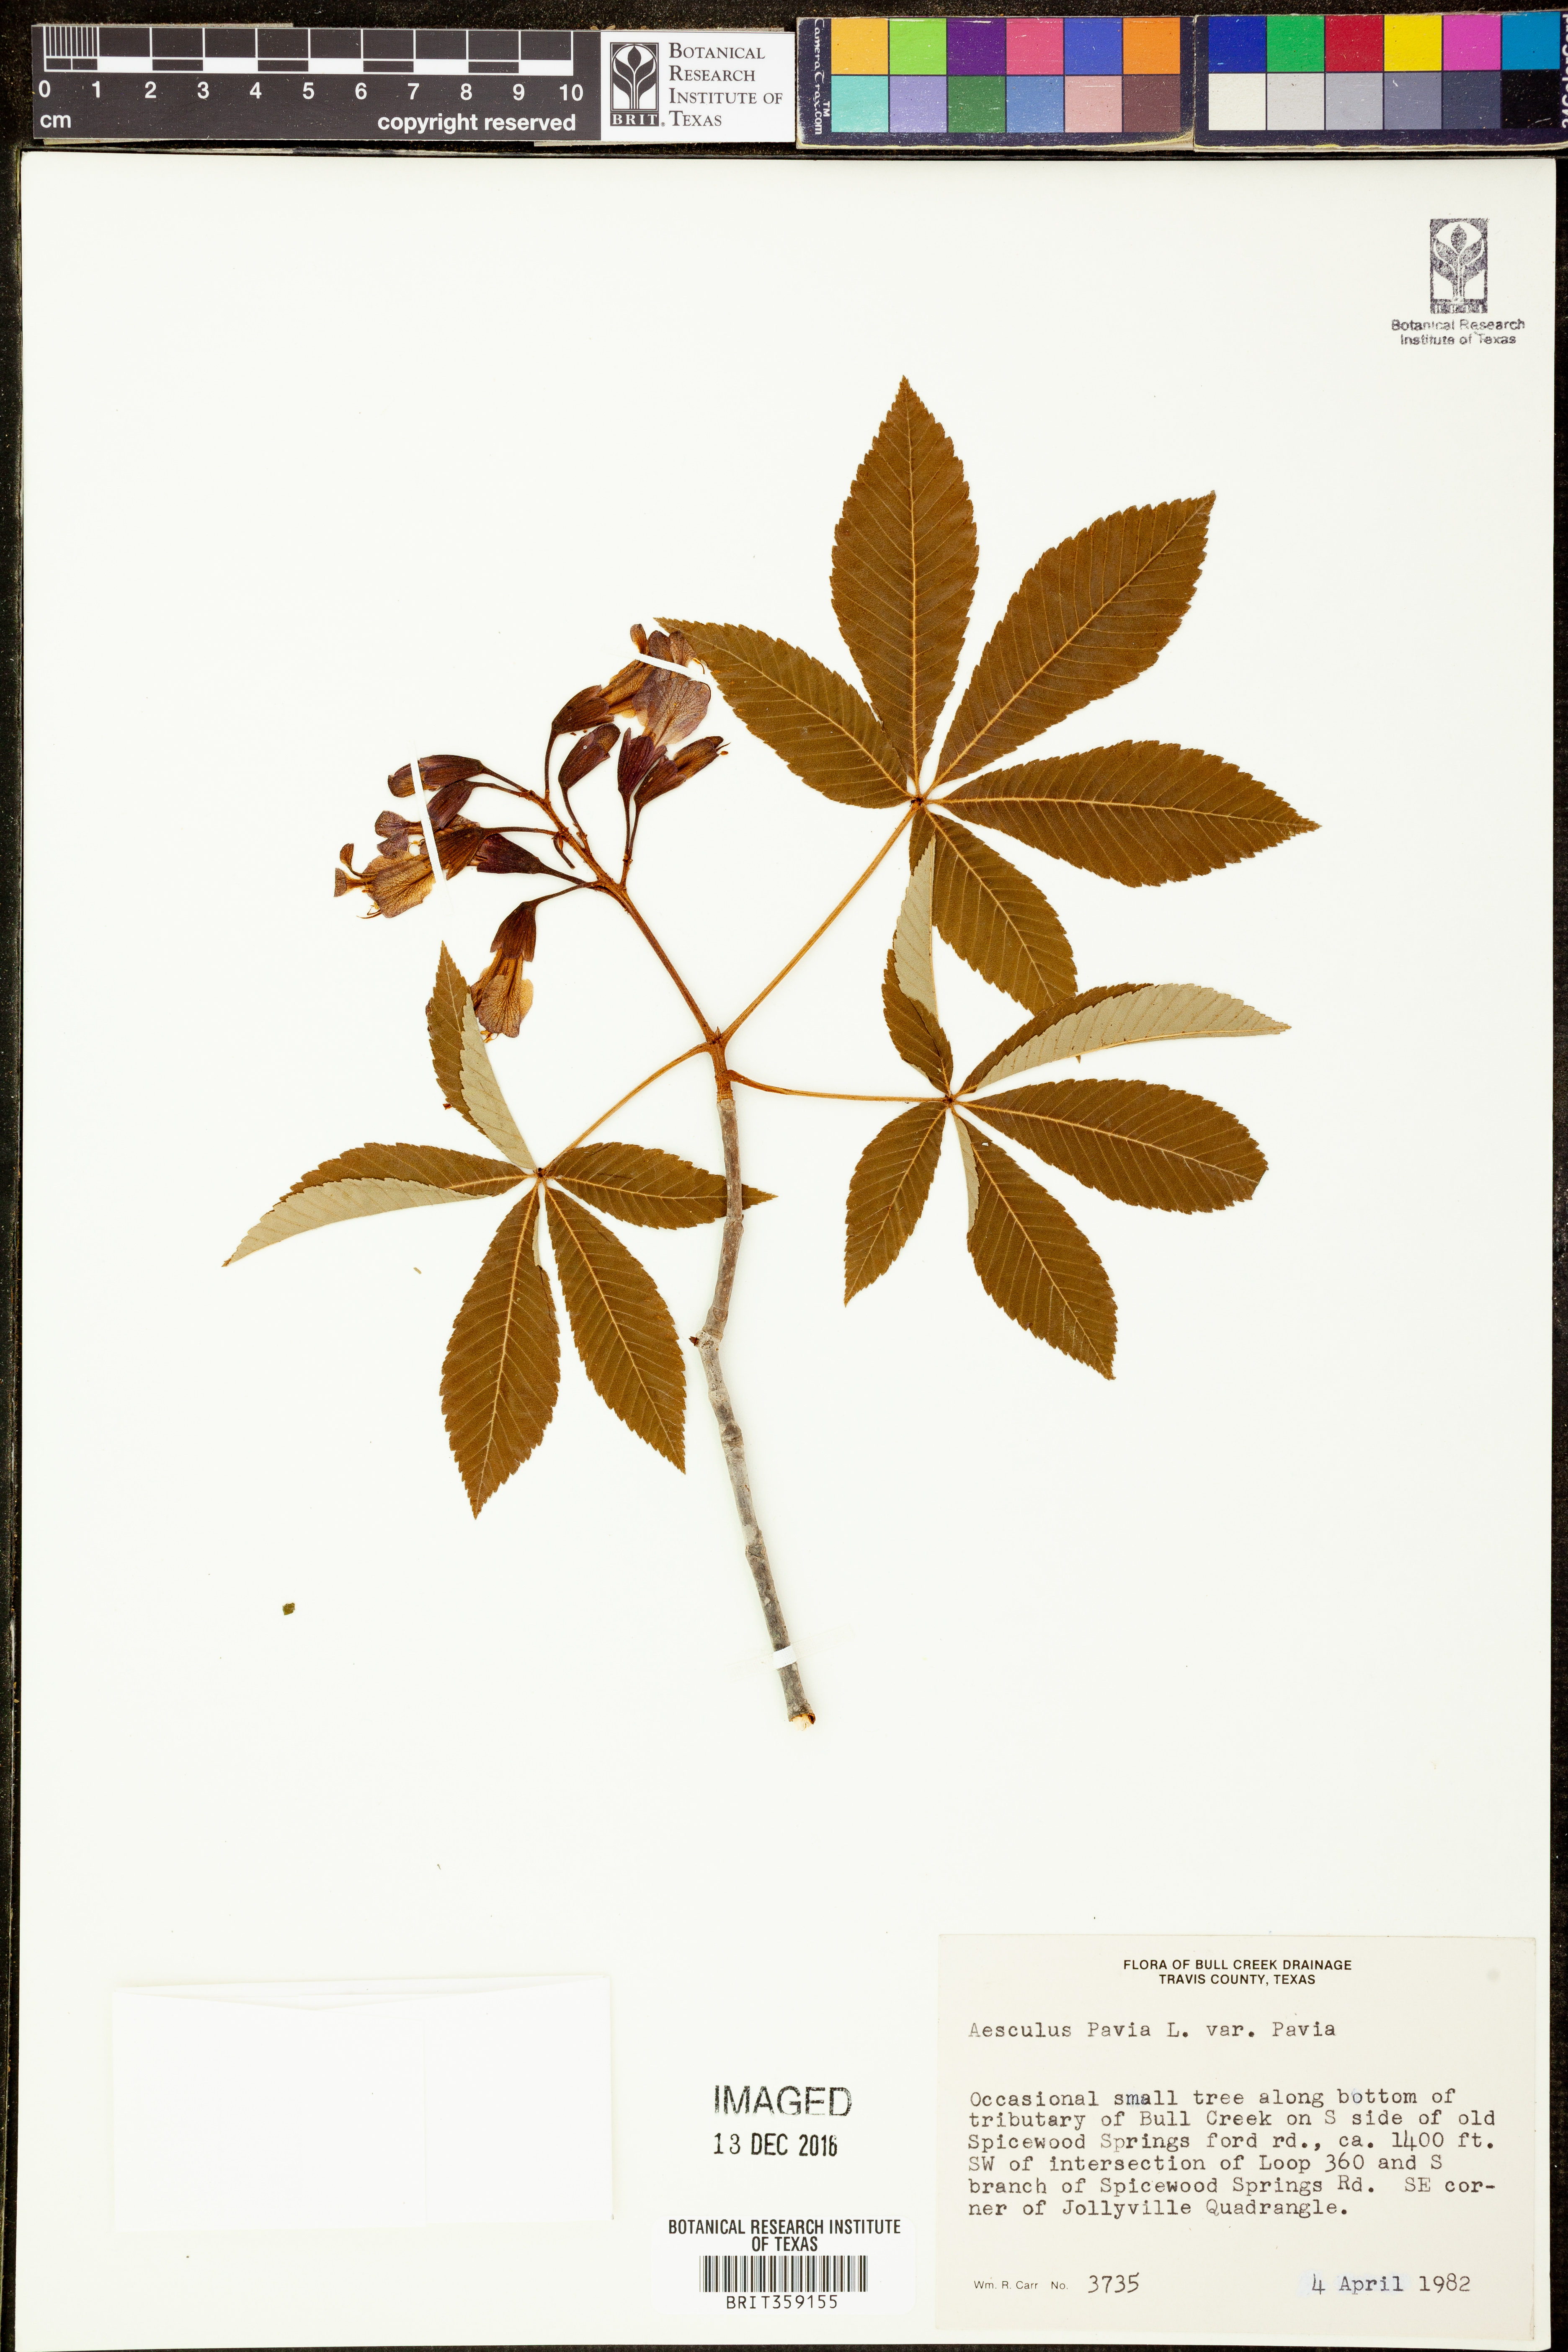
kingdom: Plantae
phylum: Tracheophyta
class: Magnoliopsida
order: Sapindales
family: Sapindaceae
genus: Aesculus
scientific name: Aesculus pavia
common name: Red buckeye
